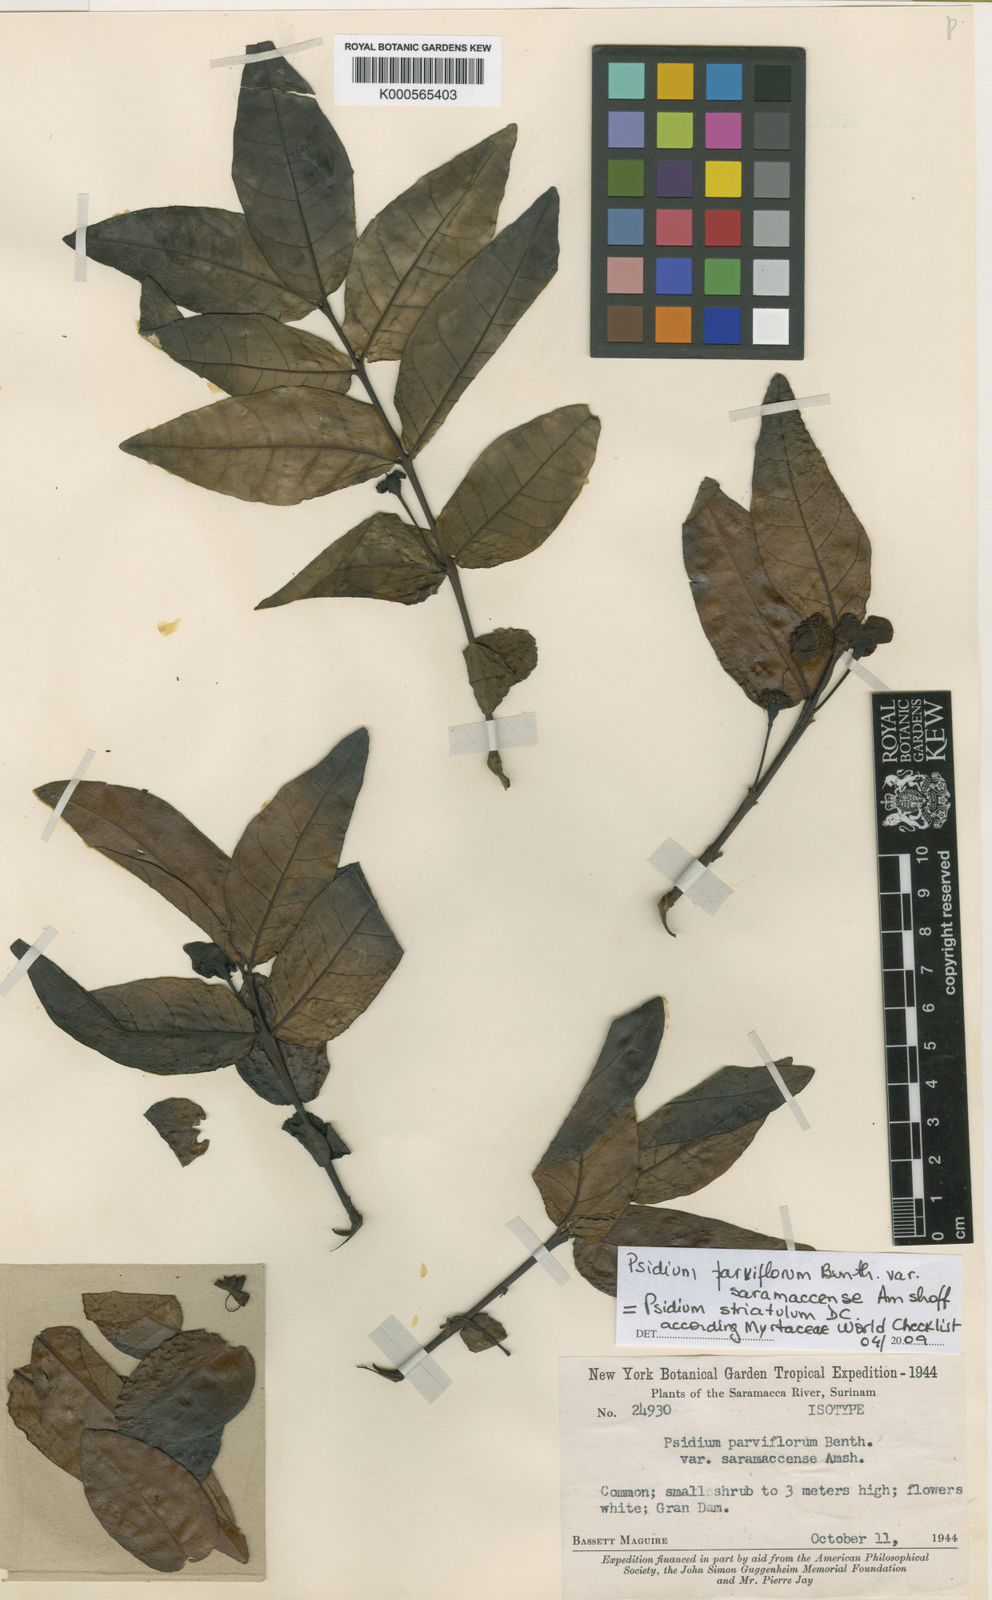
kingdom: Plantae
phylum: Tracheophyta
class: Magnoliopsida
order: Myrtales
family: Myrtaceae
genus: Psidium
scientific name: Psidium striatulum
